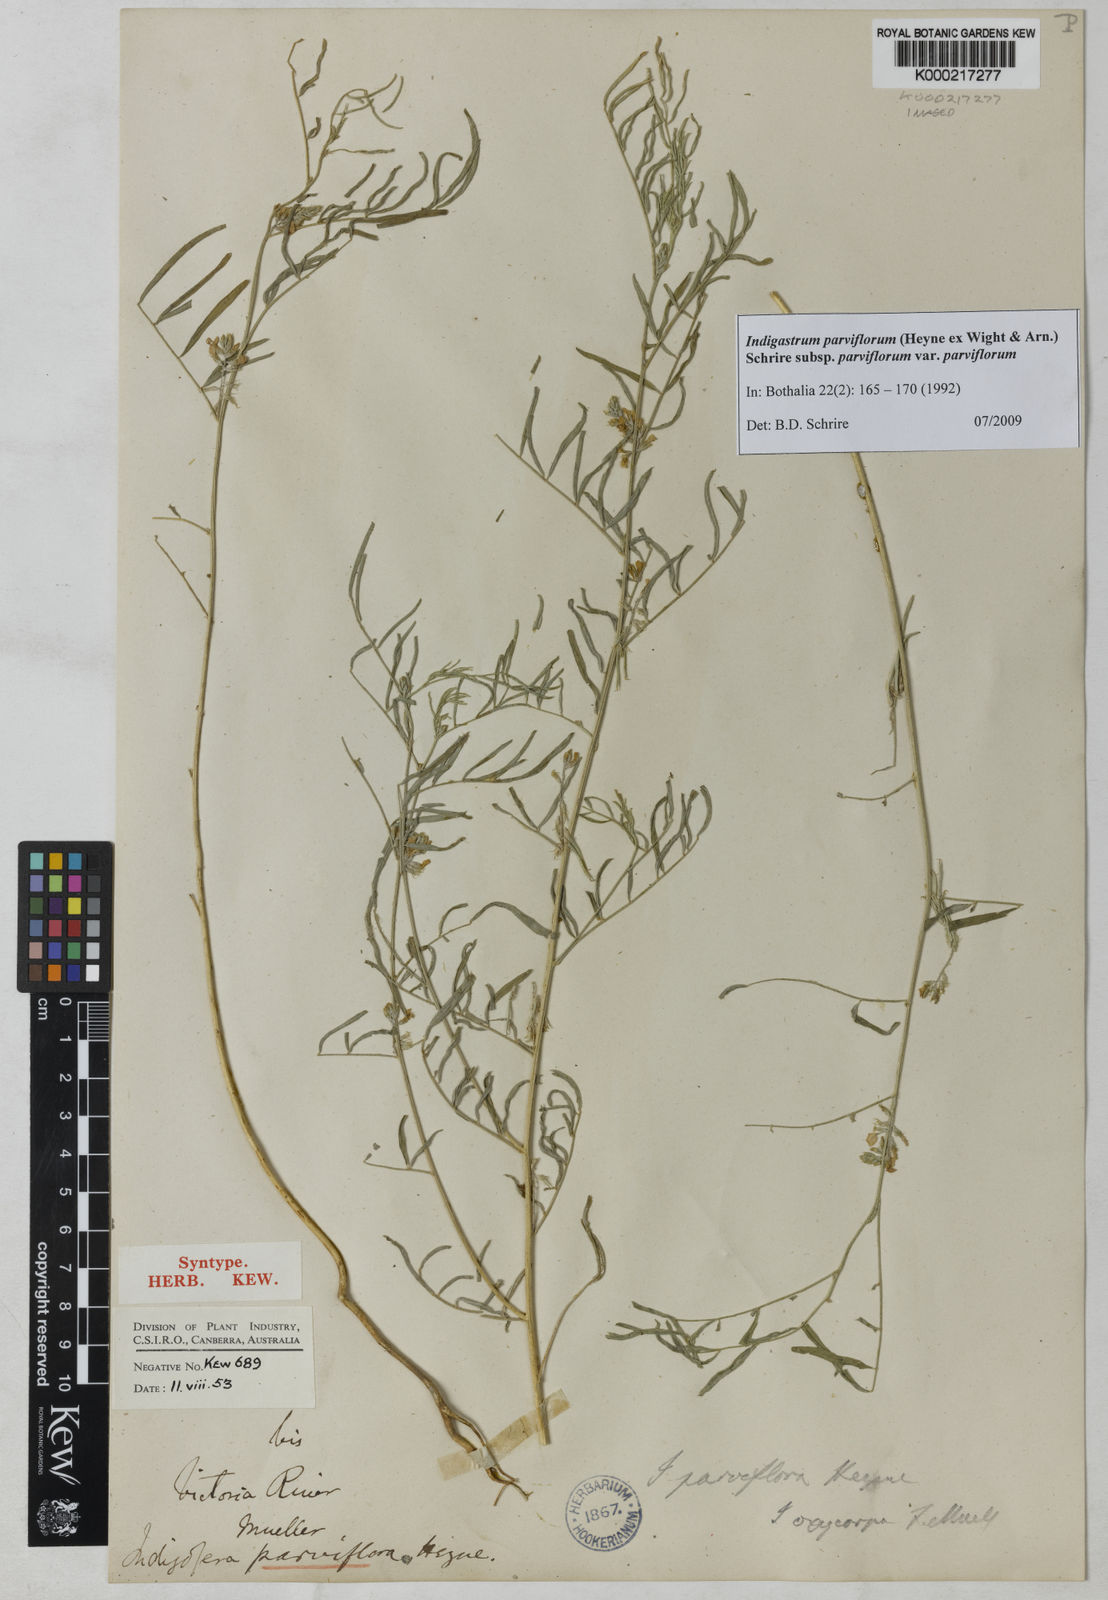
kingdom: Plantae
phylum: Tracheophyta
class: Magnoliopsida
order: Fabales
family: Fabaceae
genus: Indigastrum
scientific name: Indigastrum parviflorum
